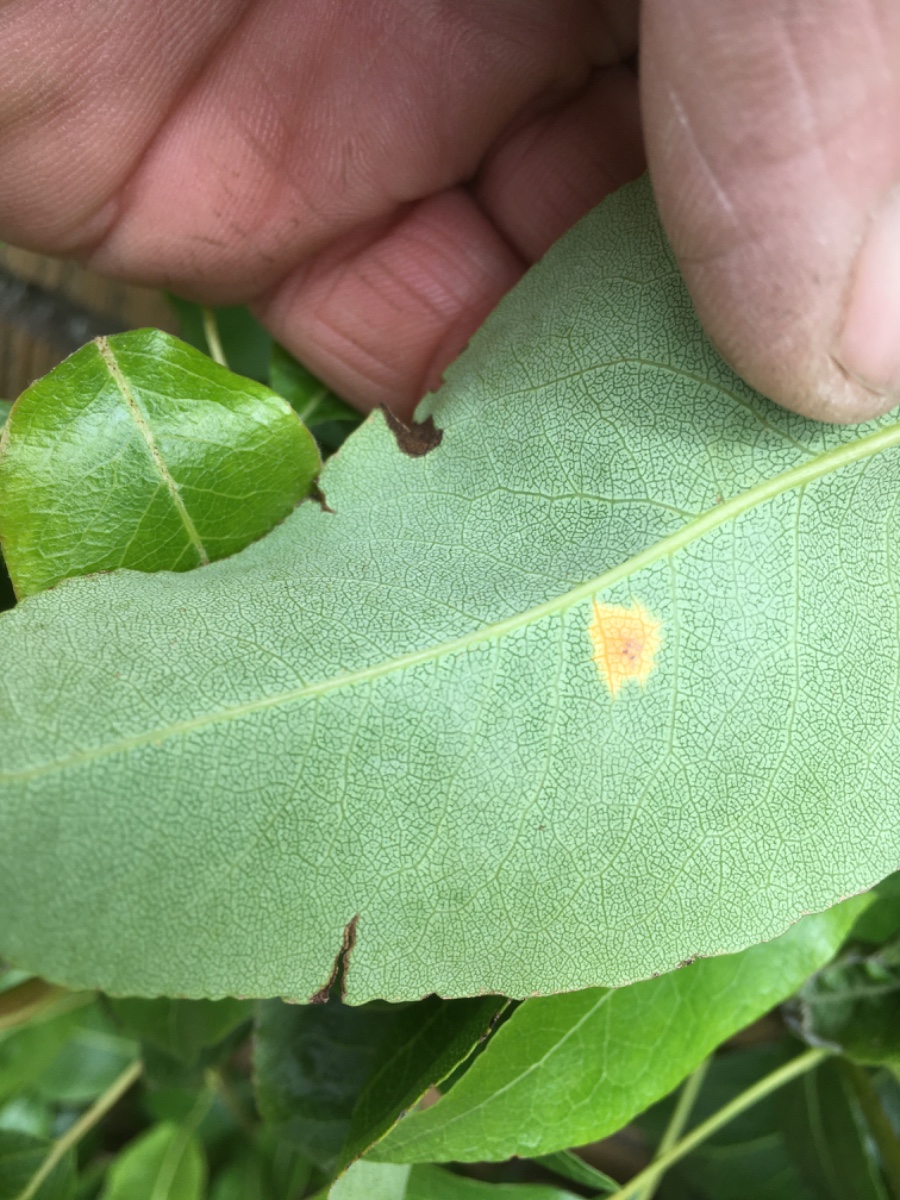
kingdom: Fungi
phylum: Basidiomycota
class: Pucciniomycetes
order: Pucciniales
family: Gymnosporangiaceae
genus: Gymnosporangium
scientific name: Gymnosporangium sabinae
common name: pæregitter-bævrerust
